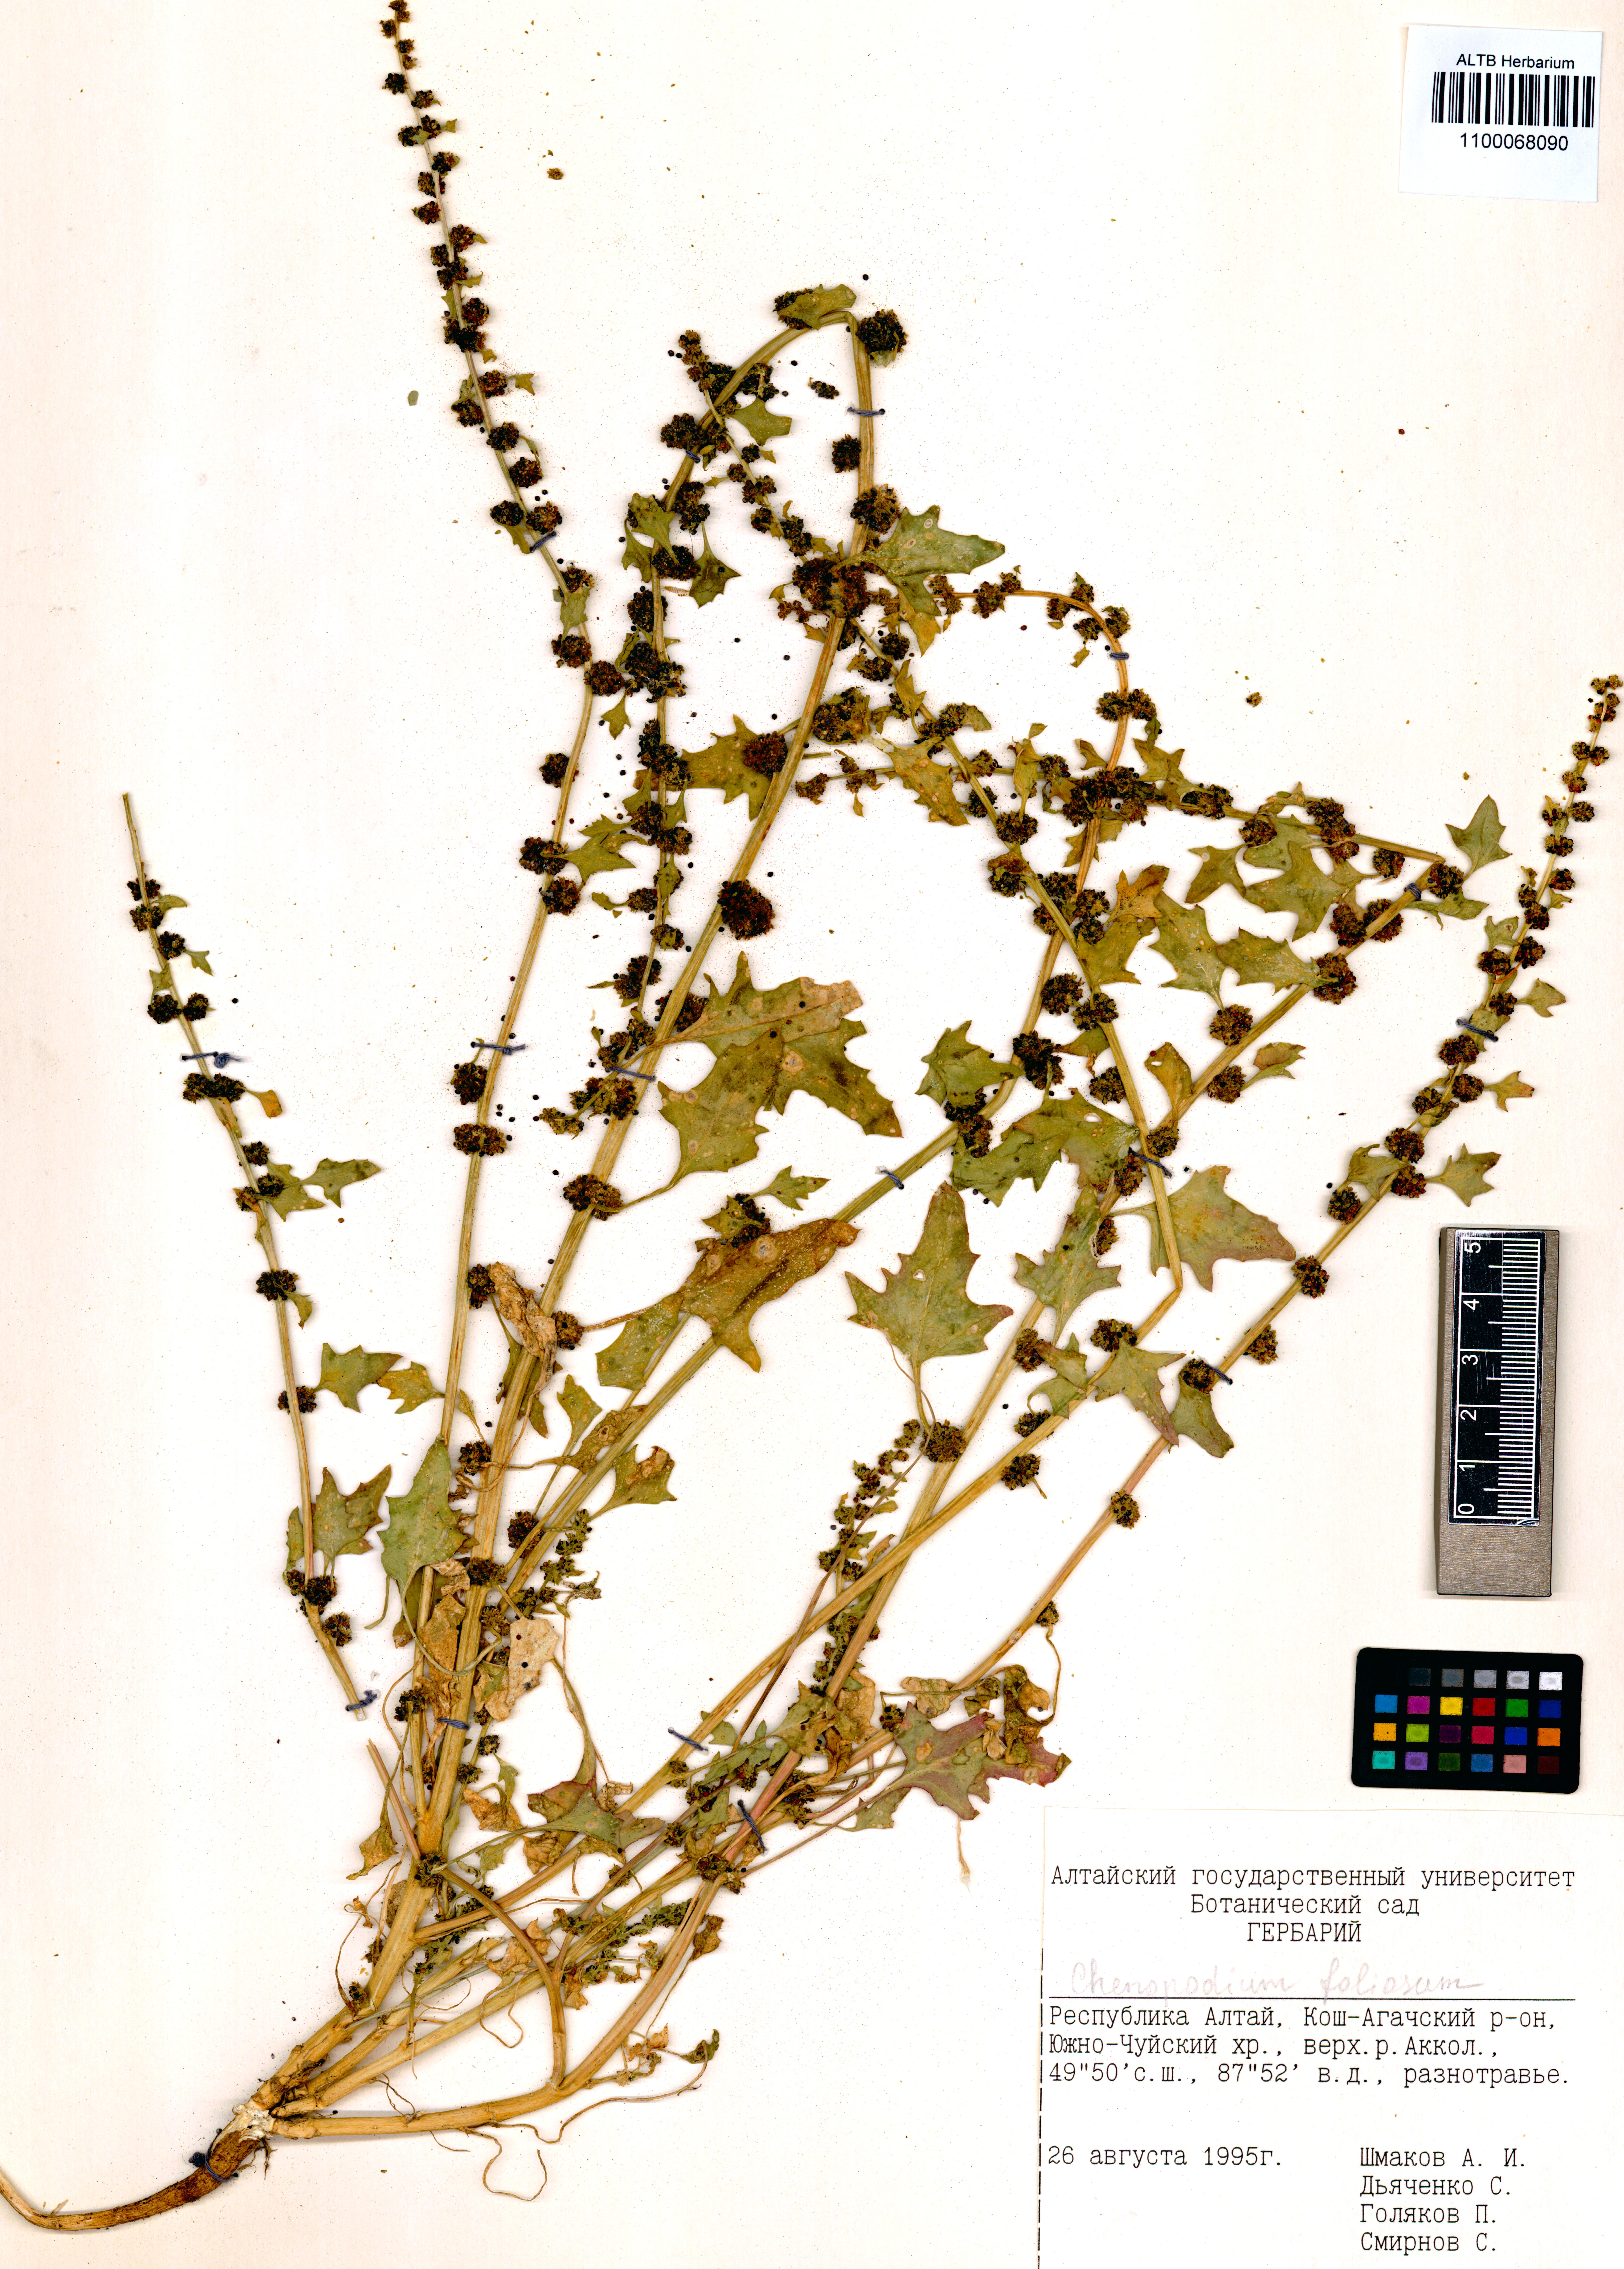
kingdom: Plantae
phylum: Tracheophyta
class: Magnoliopsida
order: Caryophyllales
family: Amaranthaceae
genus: Blitum
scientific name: Blitum virgatum
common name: Strawberry goosefoot
